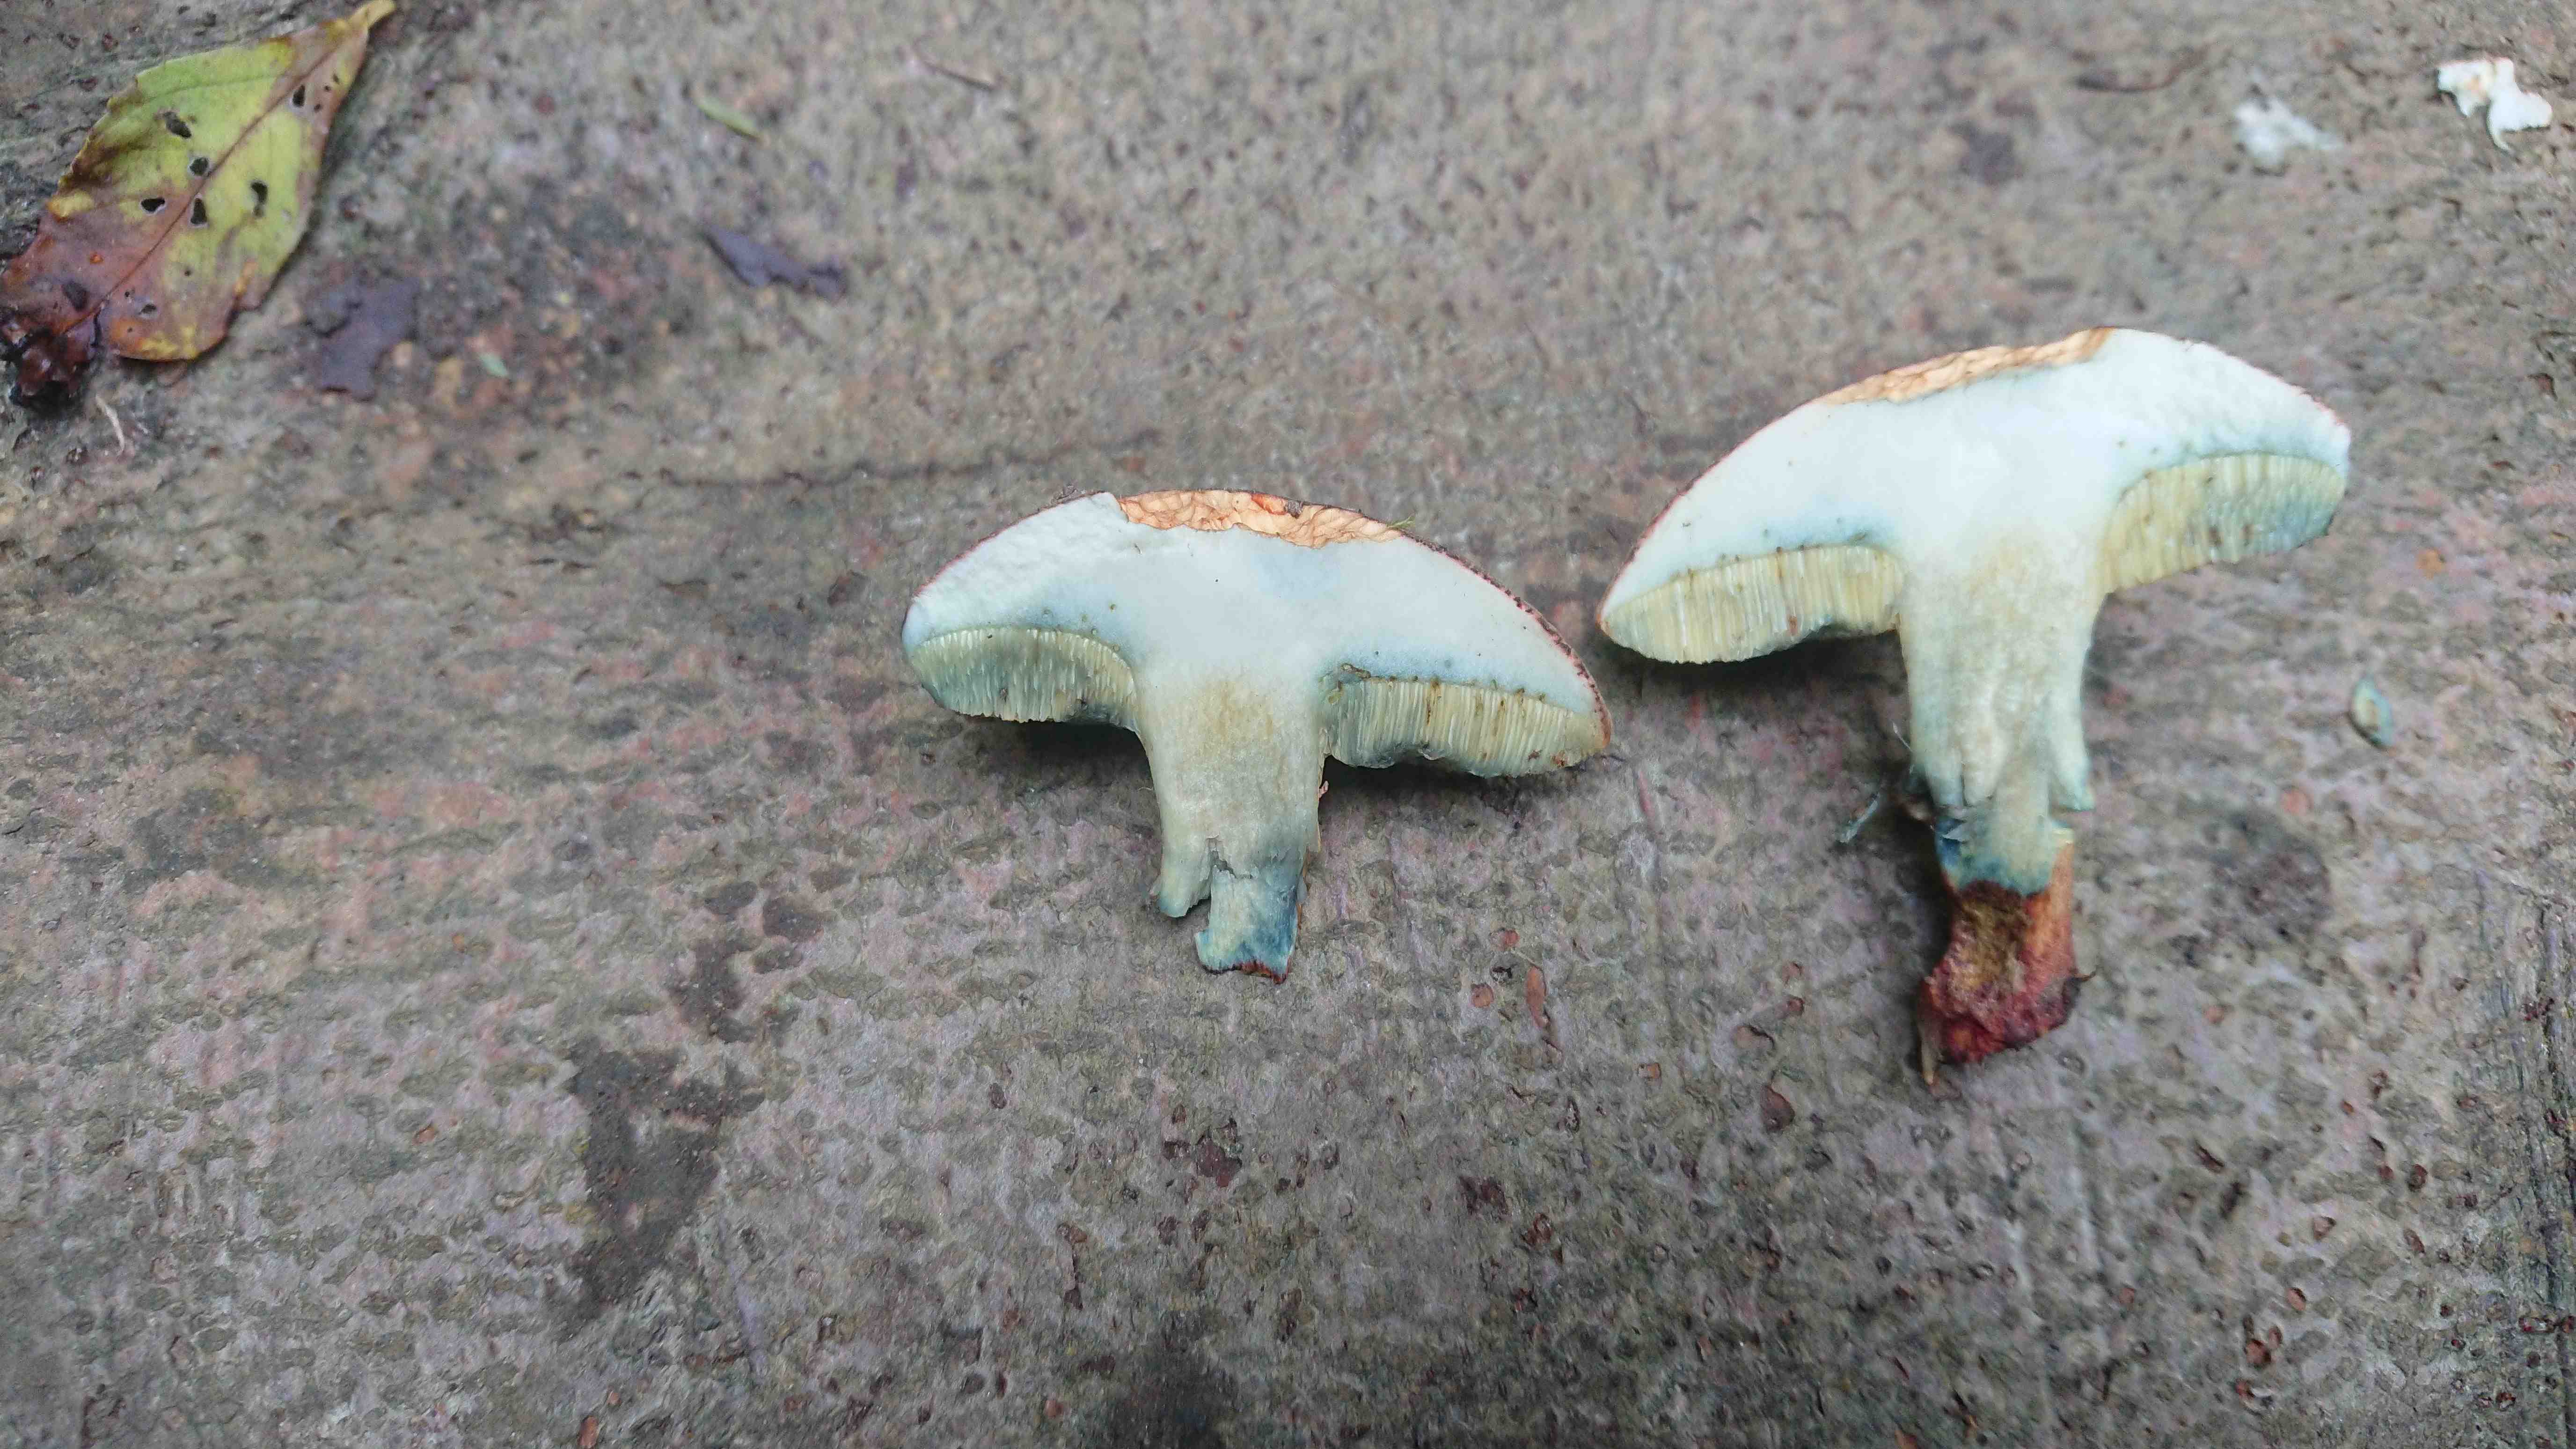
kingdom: Fungi
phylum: Basidiomycota
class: Agaricomycetes
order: Boletales
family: Boletaceae
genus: Xerocomellus
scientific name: Xerocomellus cisalpinus
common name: finsprukken rørhat
